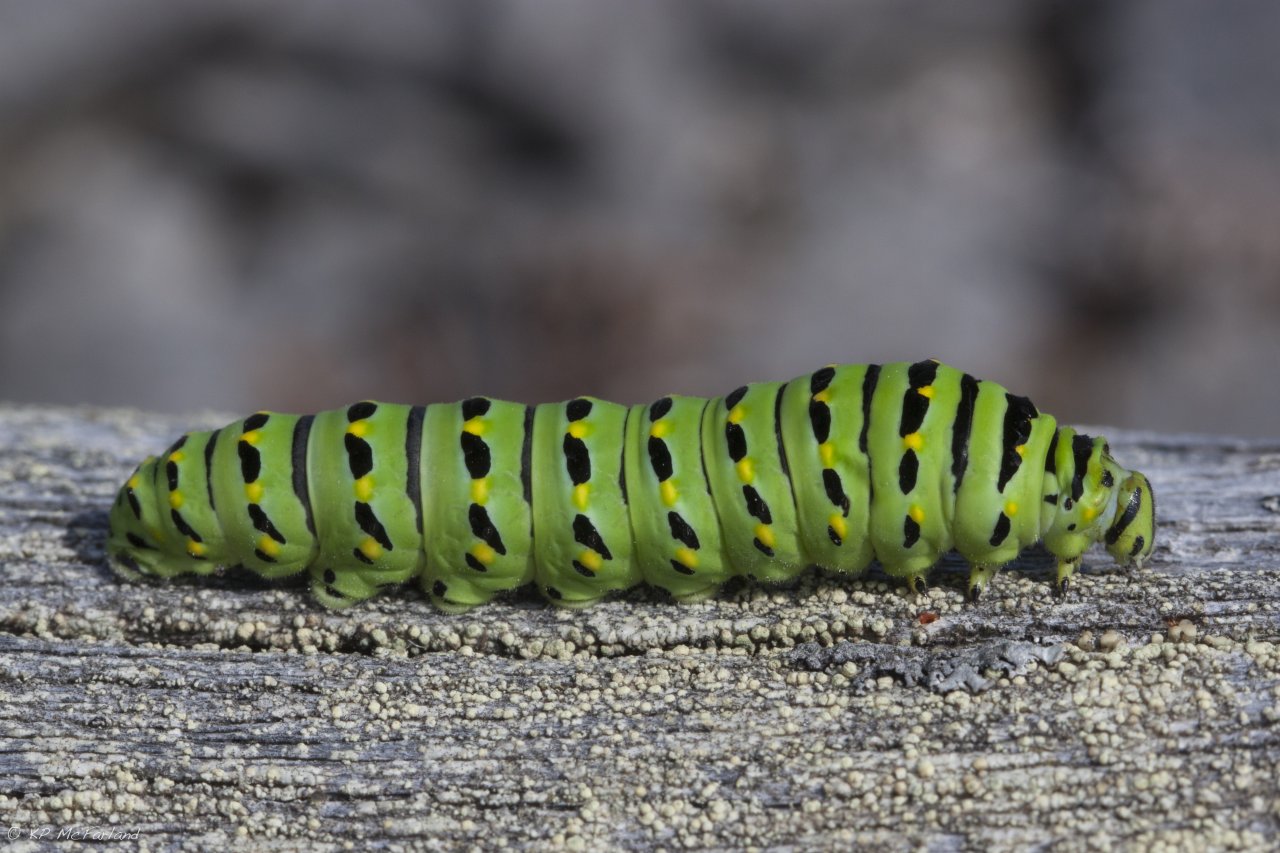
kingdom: Animalia
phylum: Arthropoda
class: Insecta
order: Lepidoptera
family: Papilionidae
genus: Papilio
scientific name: Papilio brevicauda
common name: Short-tailed Swallowtail
